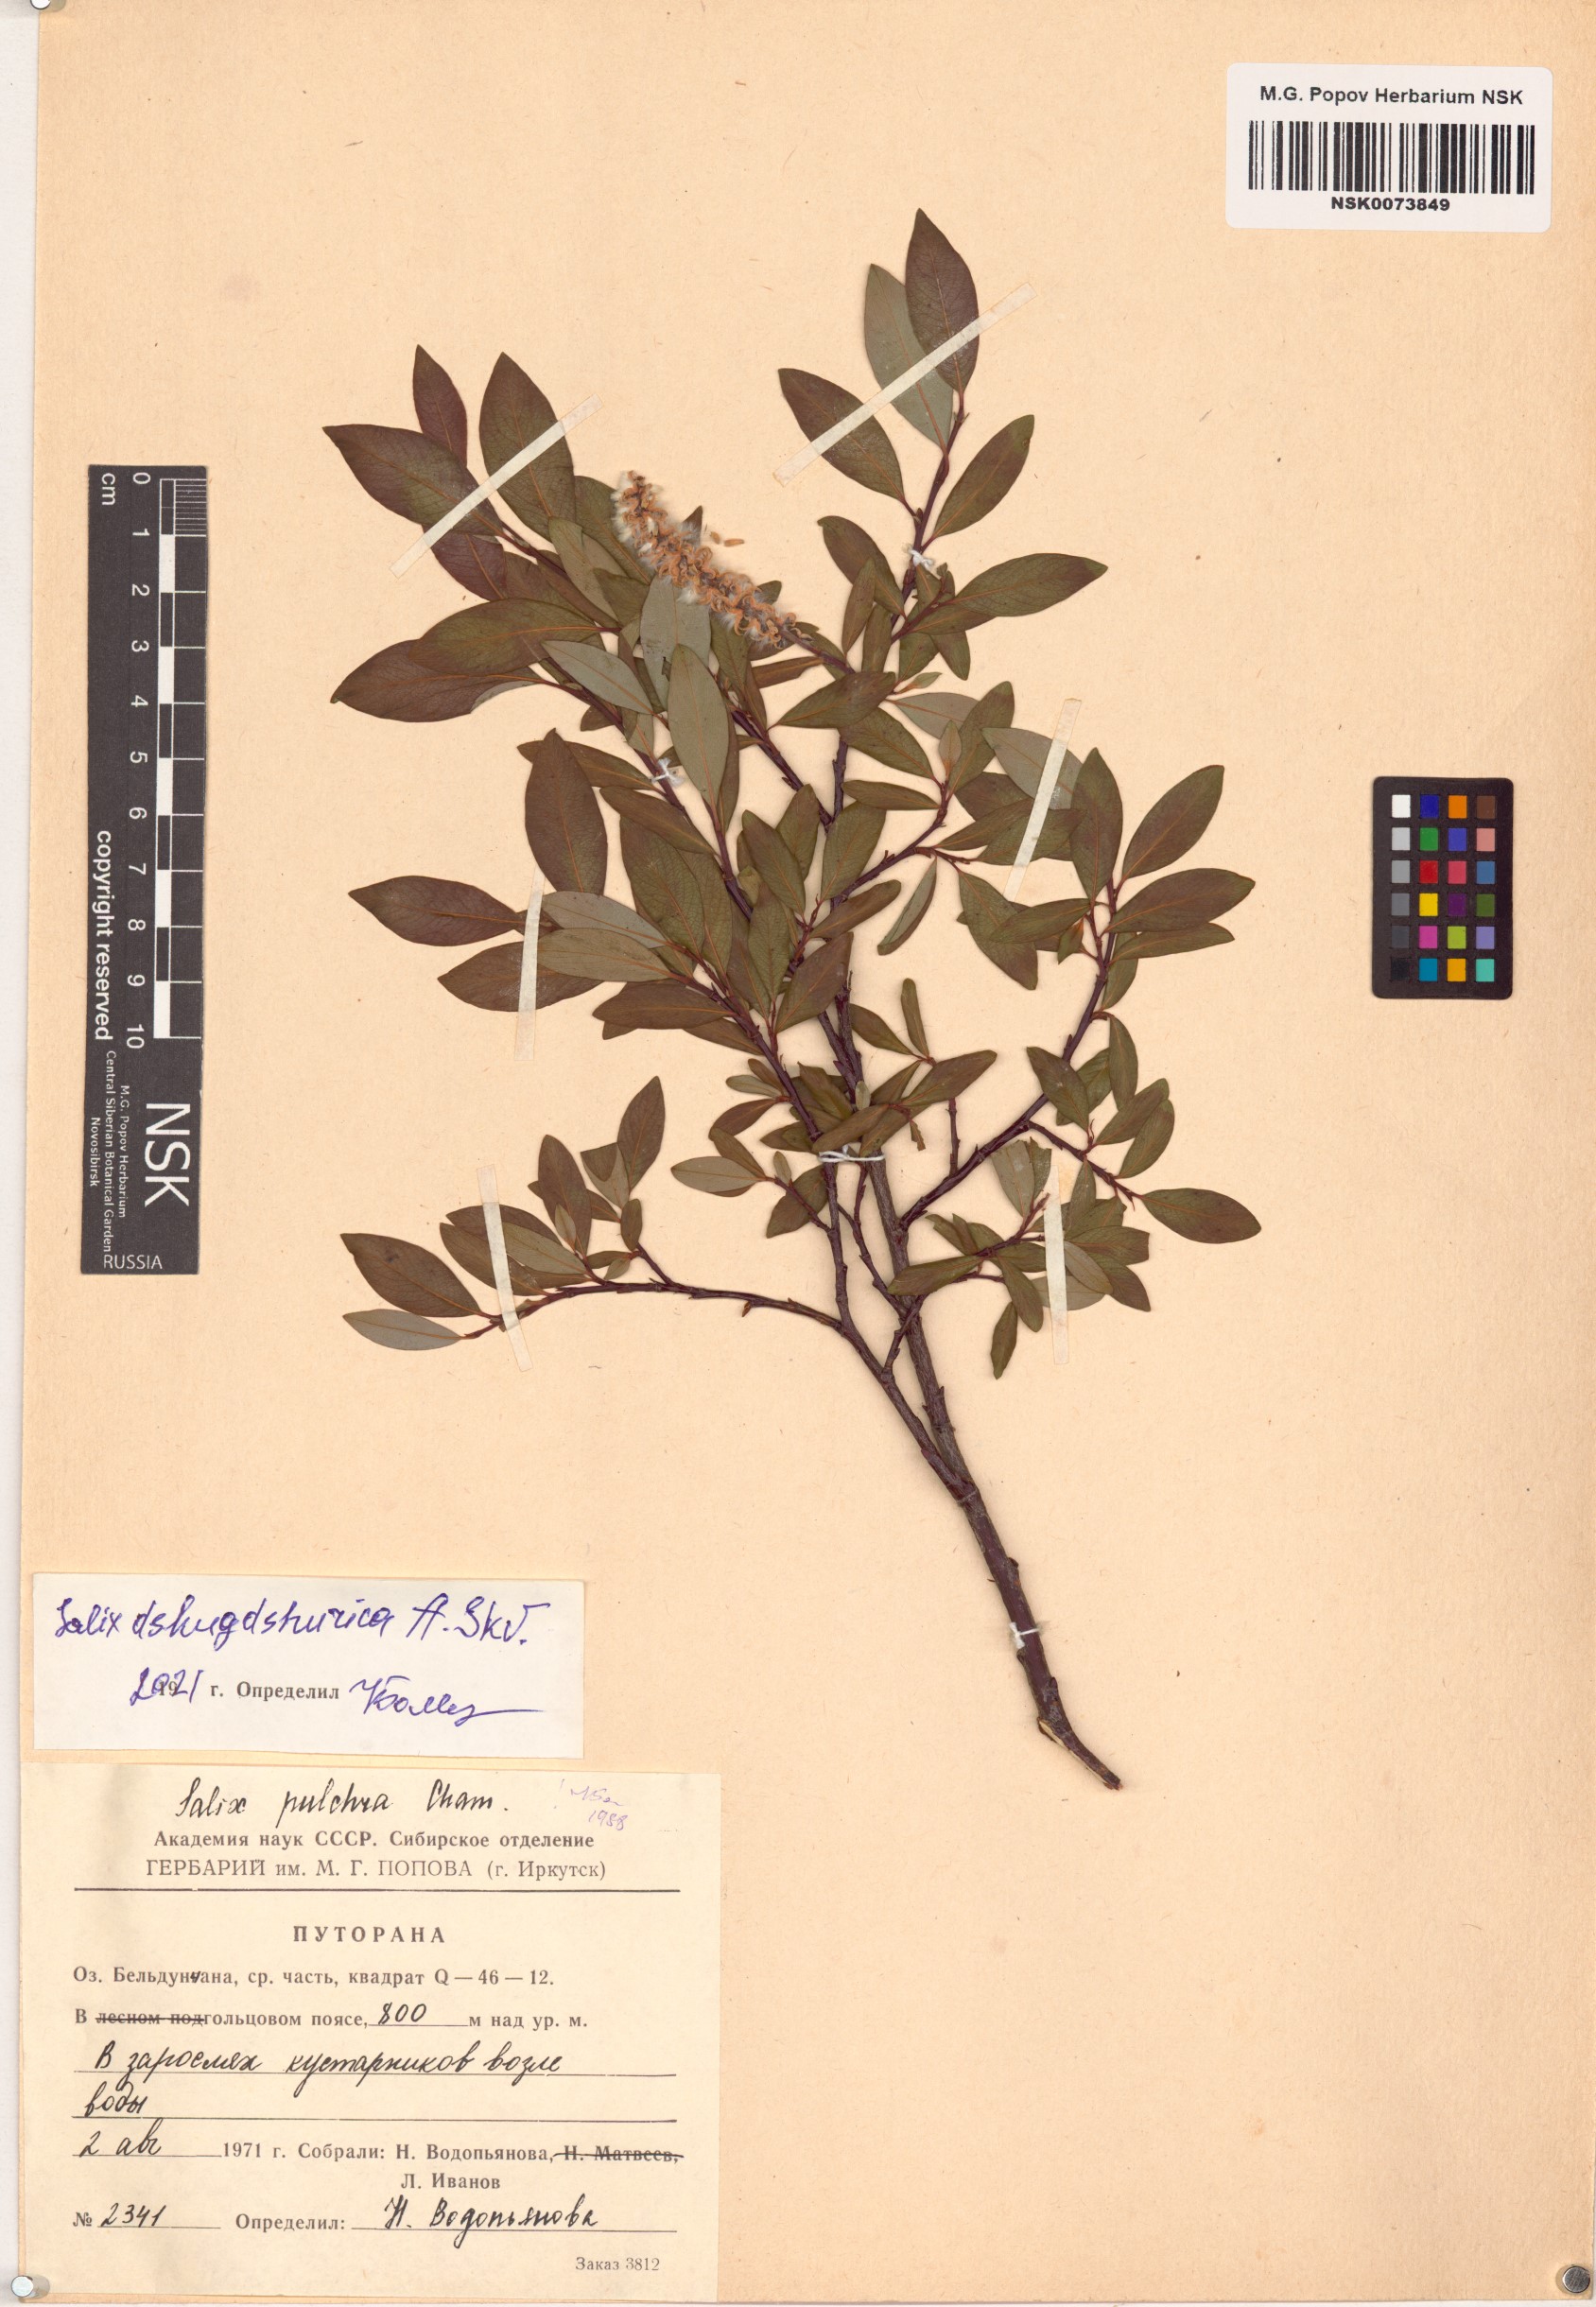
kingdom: Plantae
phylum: Tracheophyta
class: Magnoliopsida
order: Malpighiales
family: Salicaceae
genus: Salix
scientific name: Salix dshugdshurica
